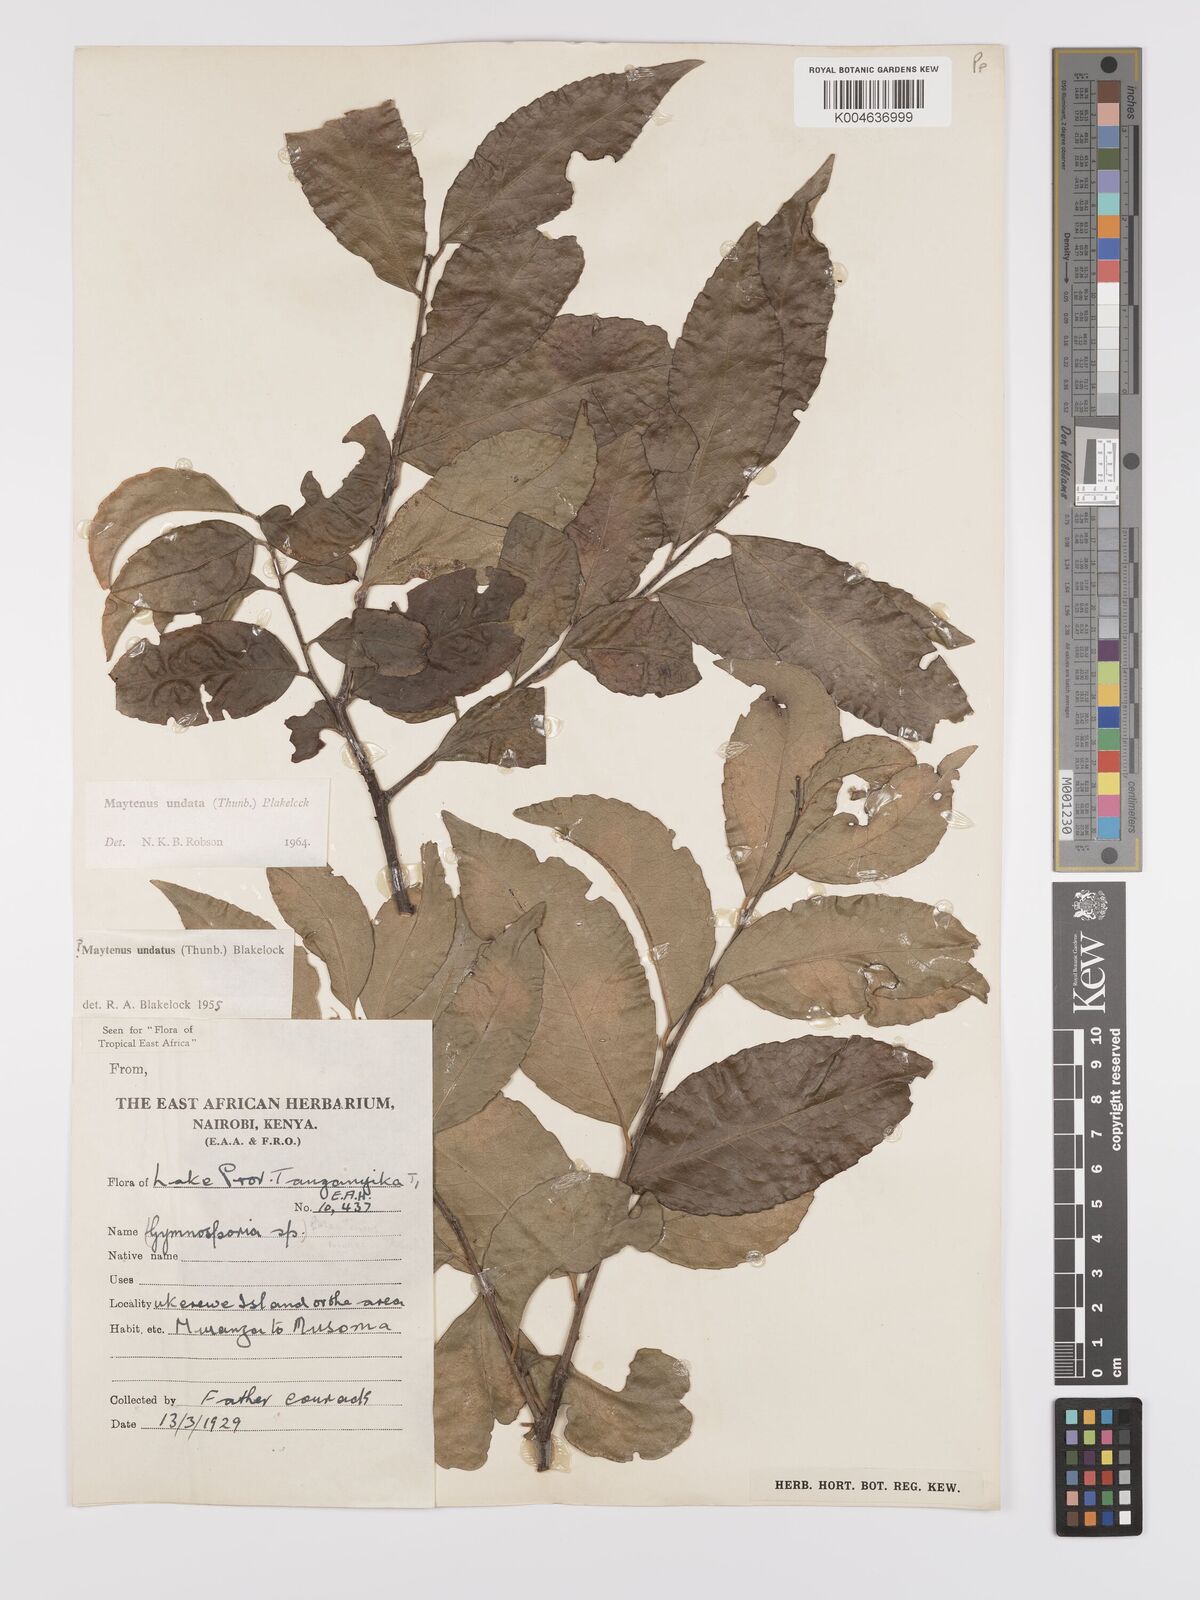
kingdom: Plantae
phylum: Tracheophyta
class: Magnoliopsida
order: Celastrales
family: Celastraceae
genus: Gymnosporia
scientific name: Gymnosporia undata
